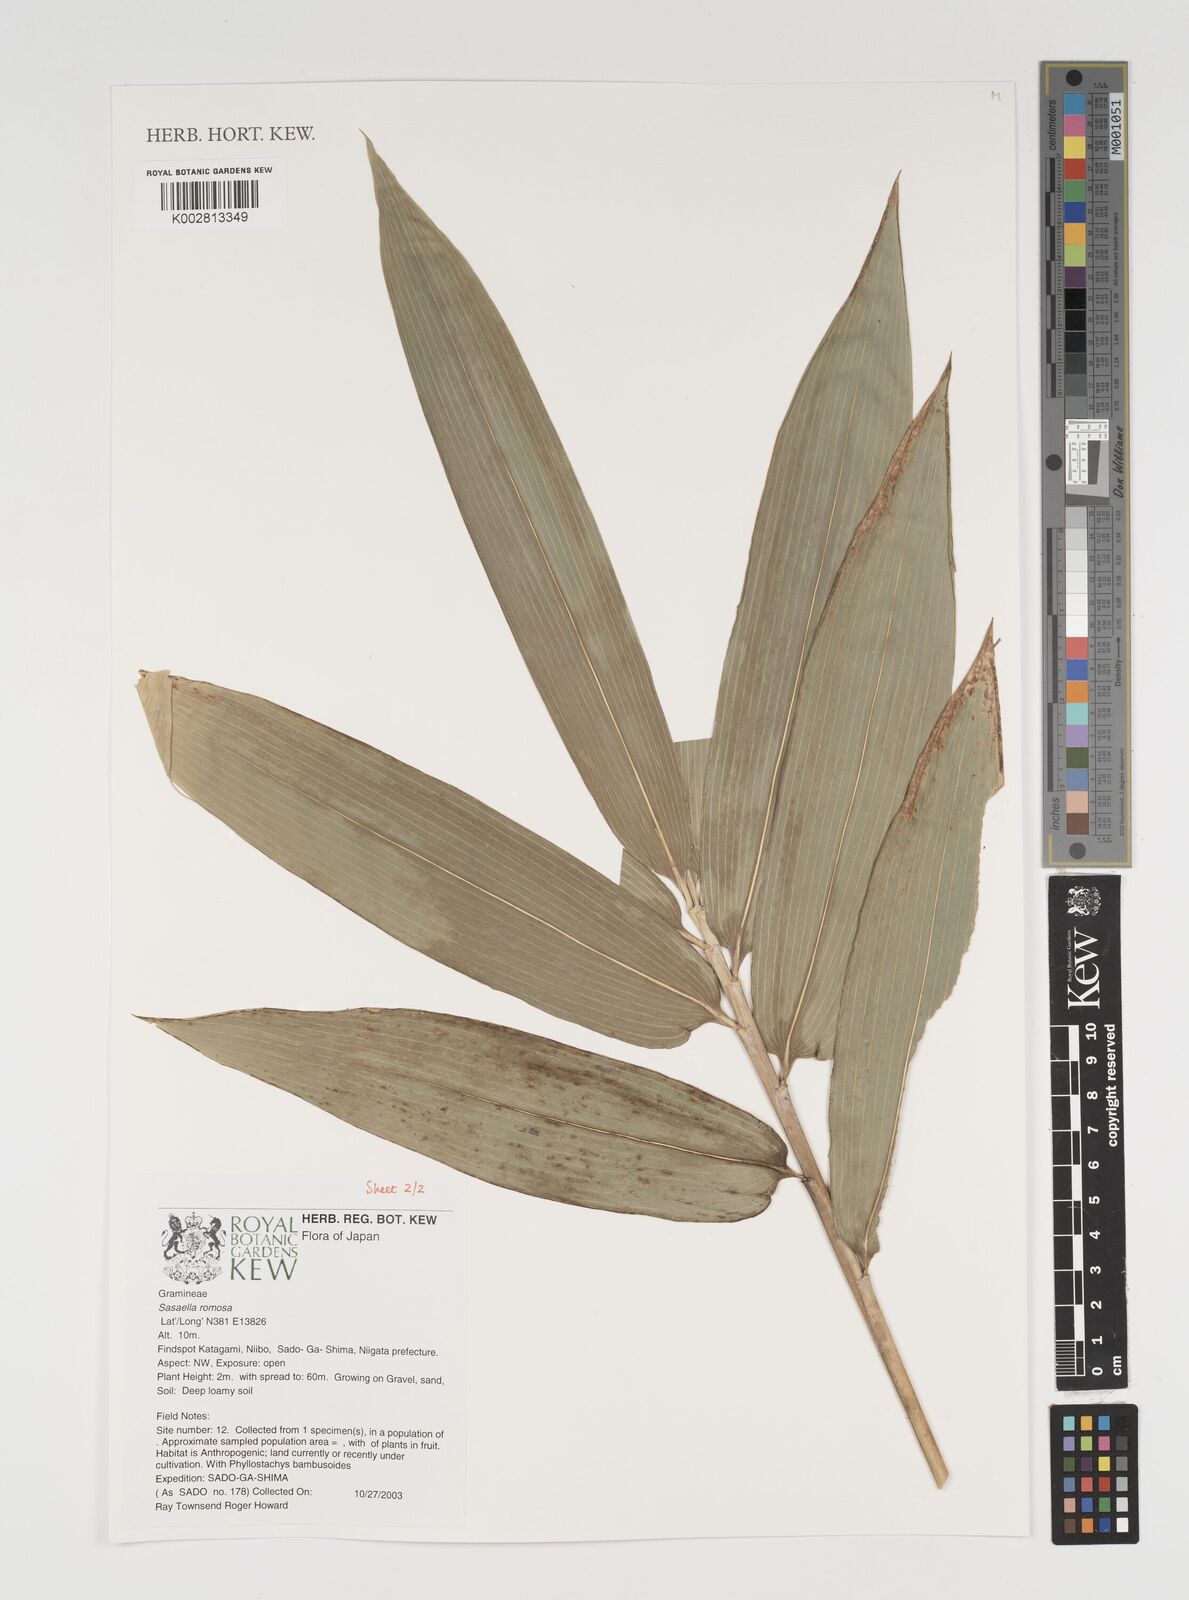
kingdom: Plantae
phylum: Tracheophyta
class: Liliopsida
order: Poales
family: Poaceae
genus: Sasaella
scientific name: Sasaella ramosa
